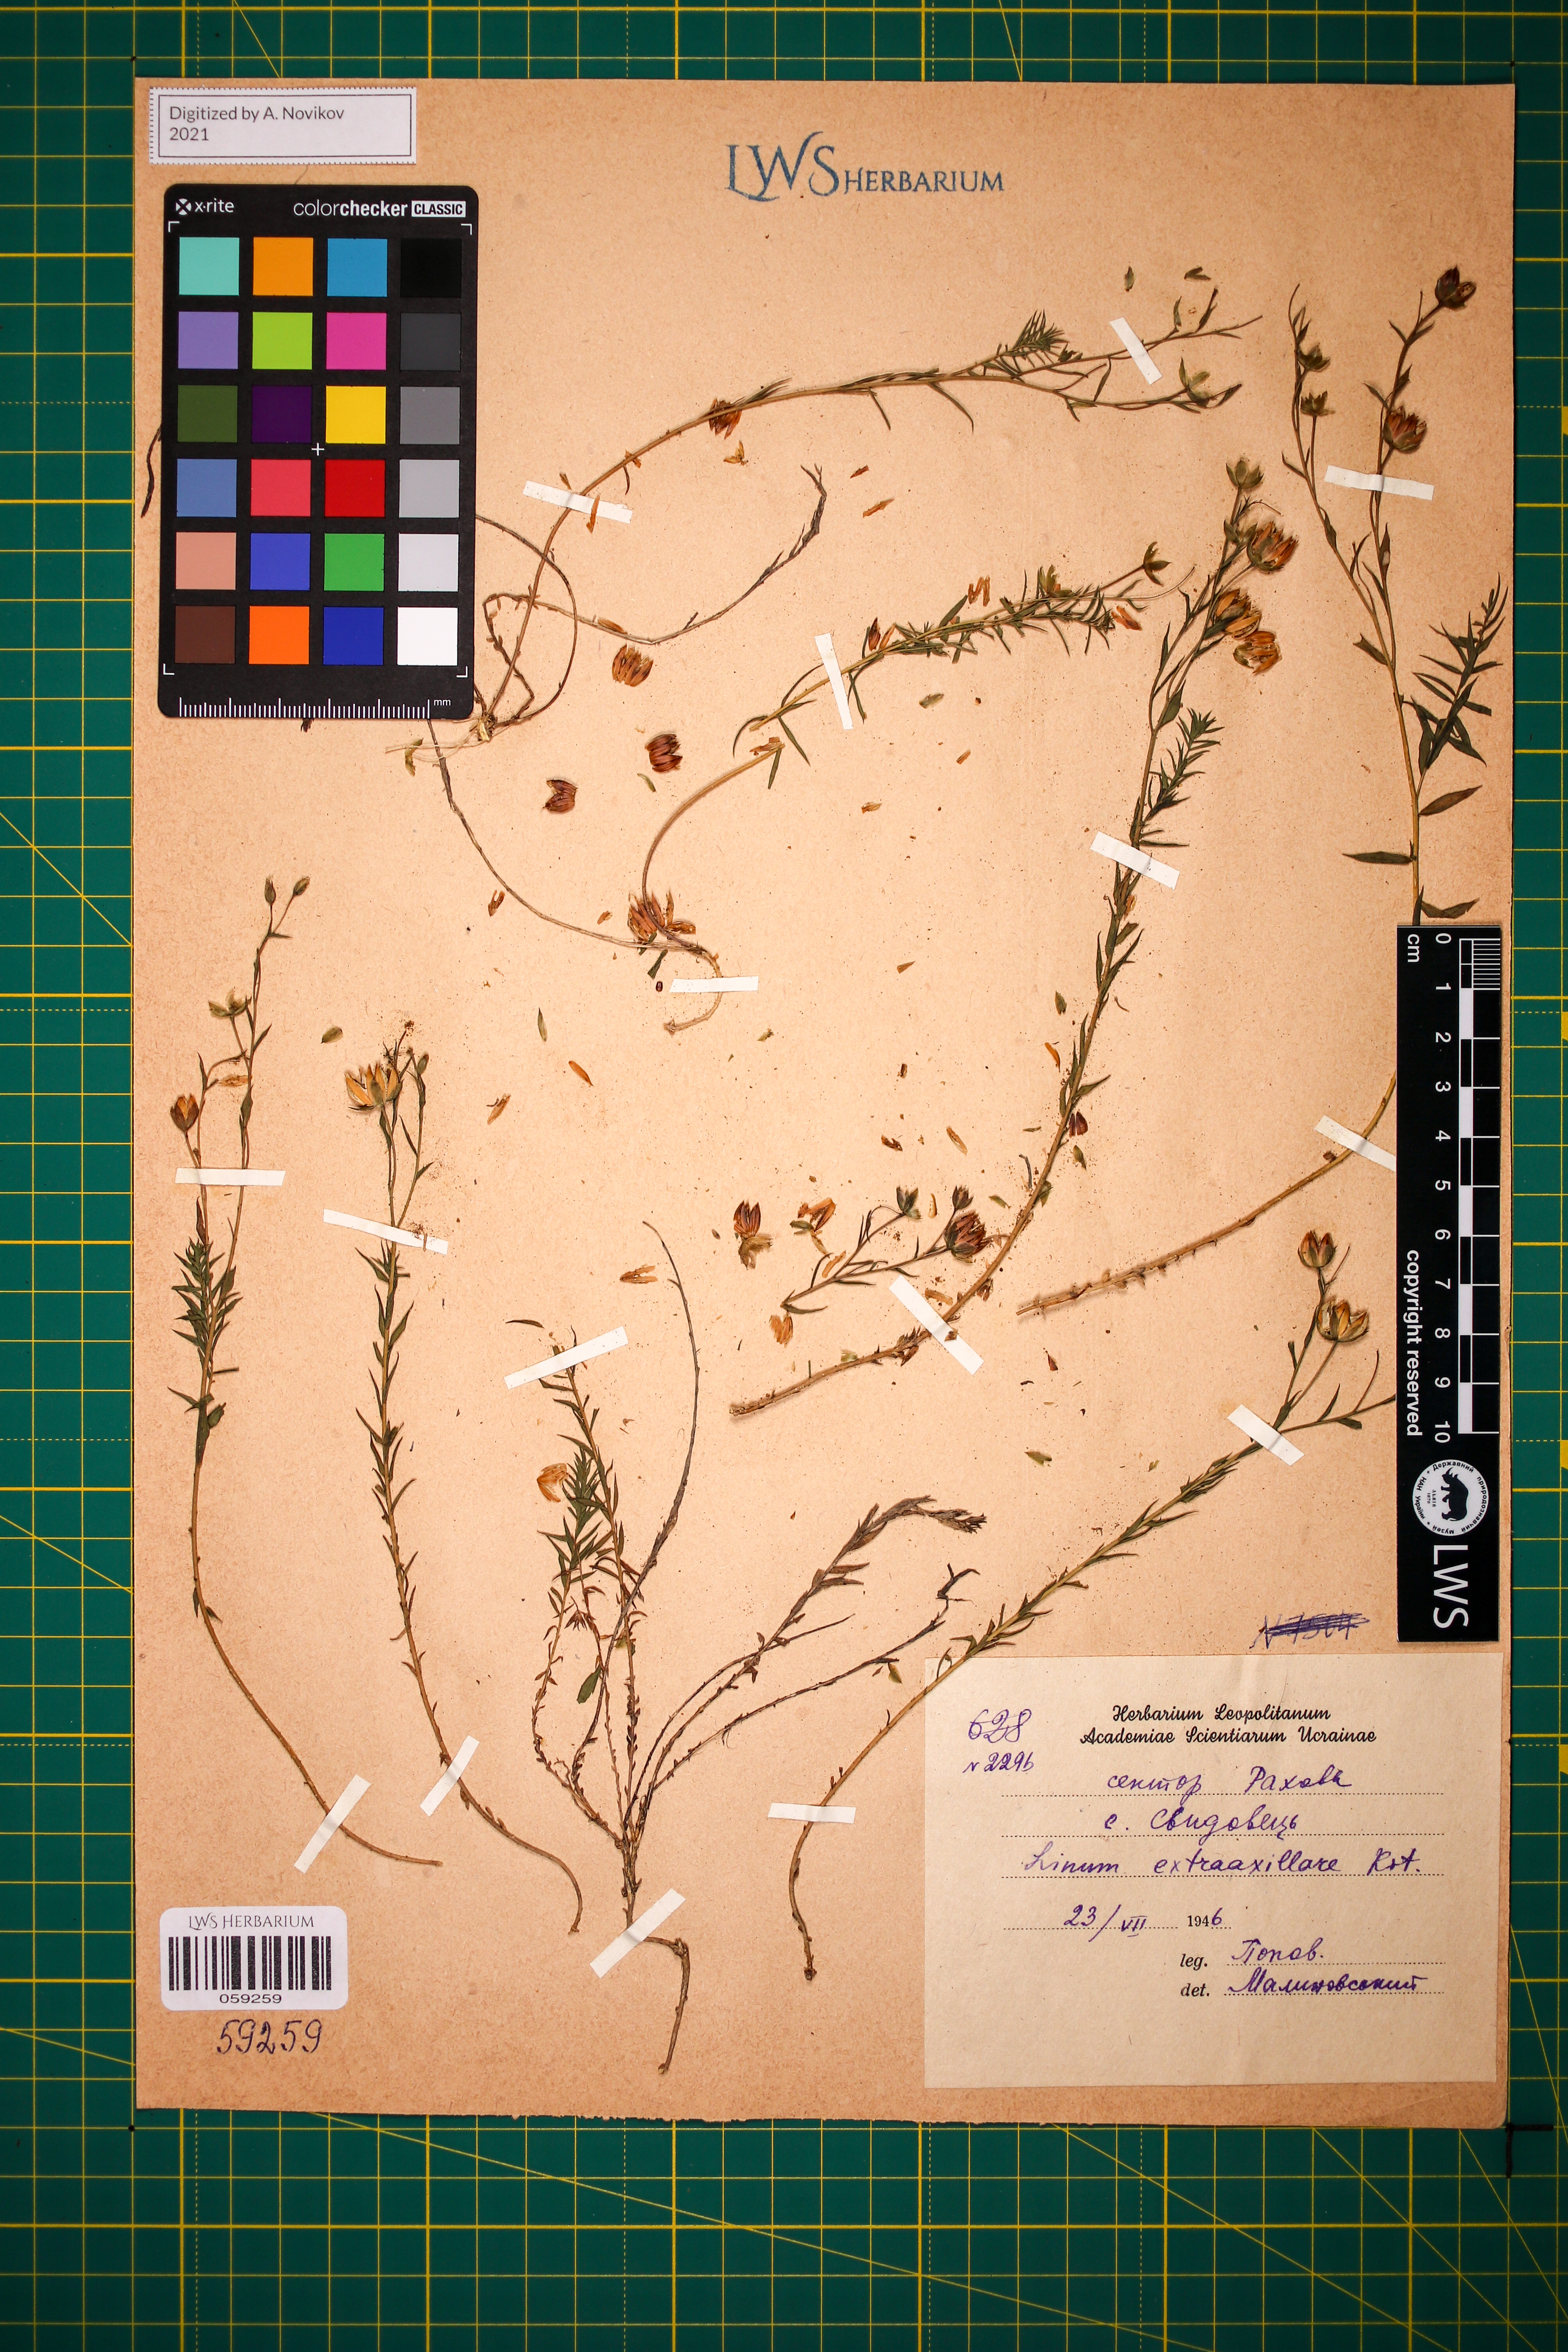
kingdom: Plantae
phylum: Tracheophyta
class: Magnoliopsida
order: Malpighiales
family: Linaceae
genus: Linum
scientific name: Linum perenne
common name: Blue flax
